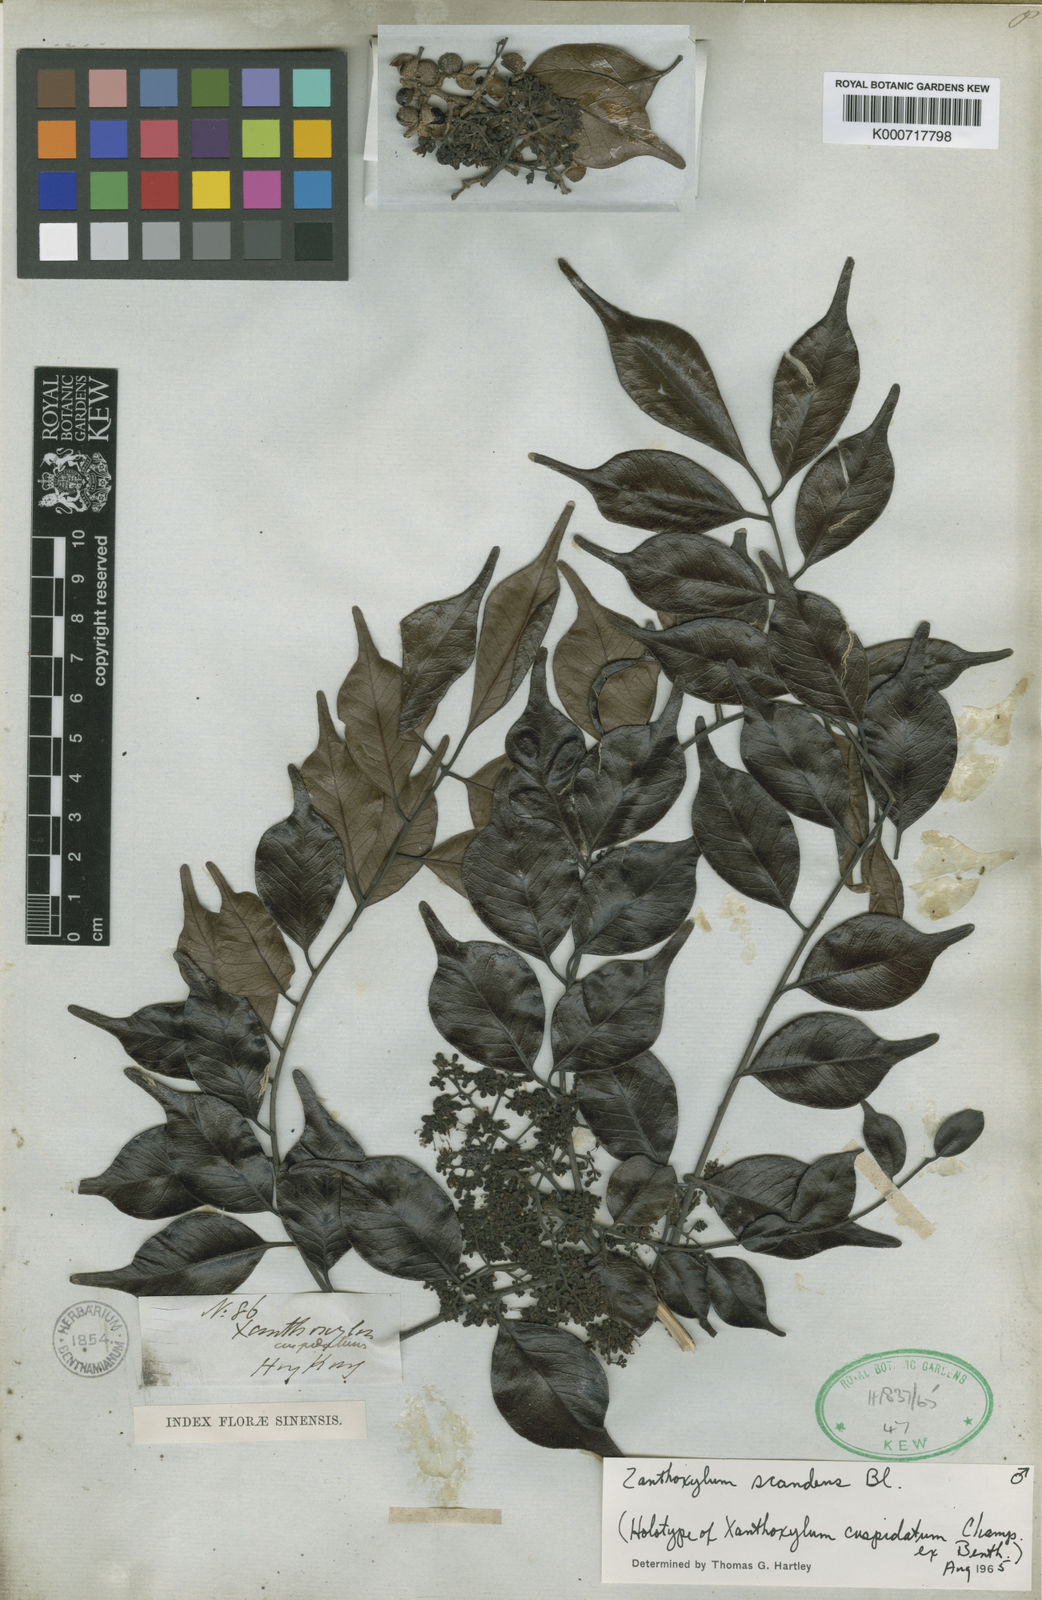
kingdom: Plantae
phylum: Tracheophyta
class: Magnoliopsida
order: Sapindales
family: Rutaceae
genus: Zanthoxylum
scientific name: Zanthoxylum scandens
